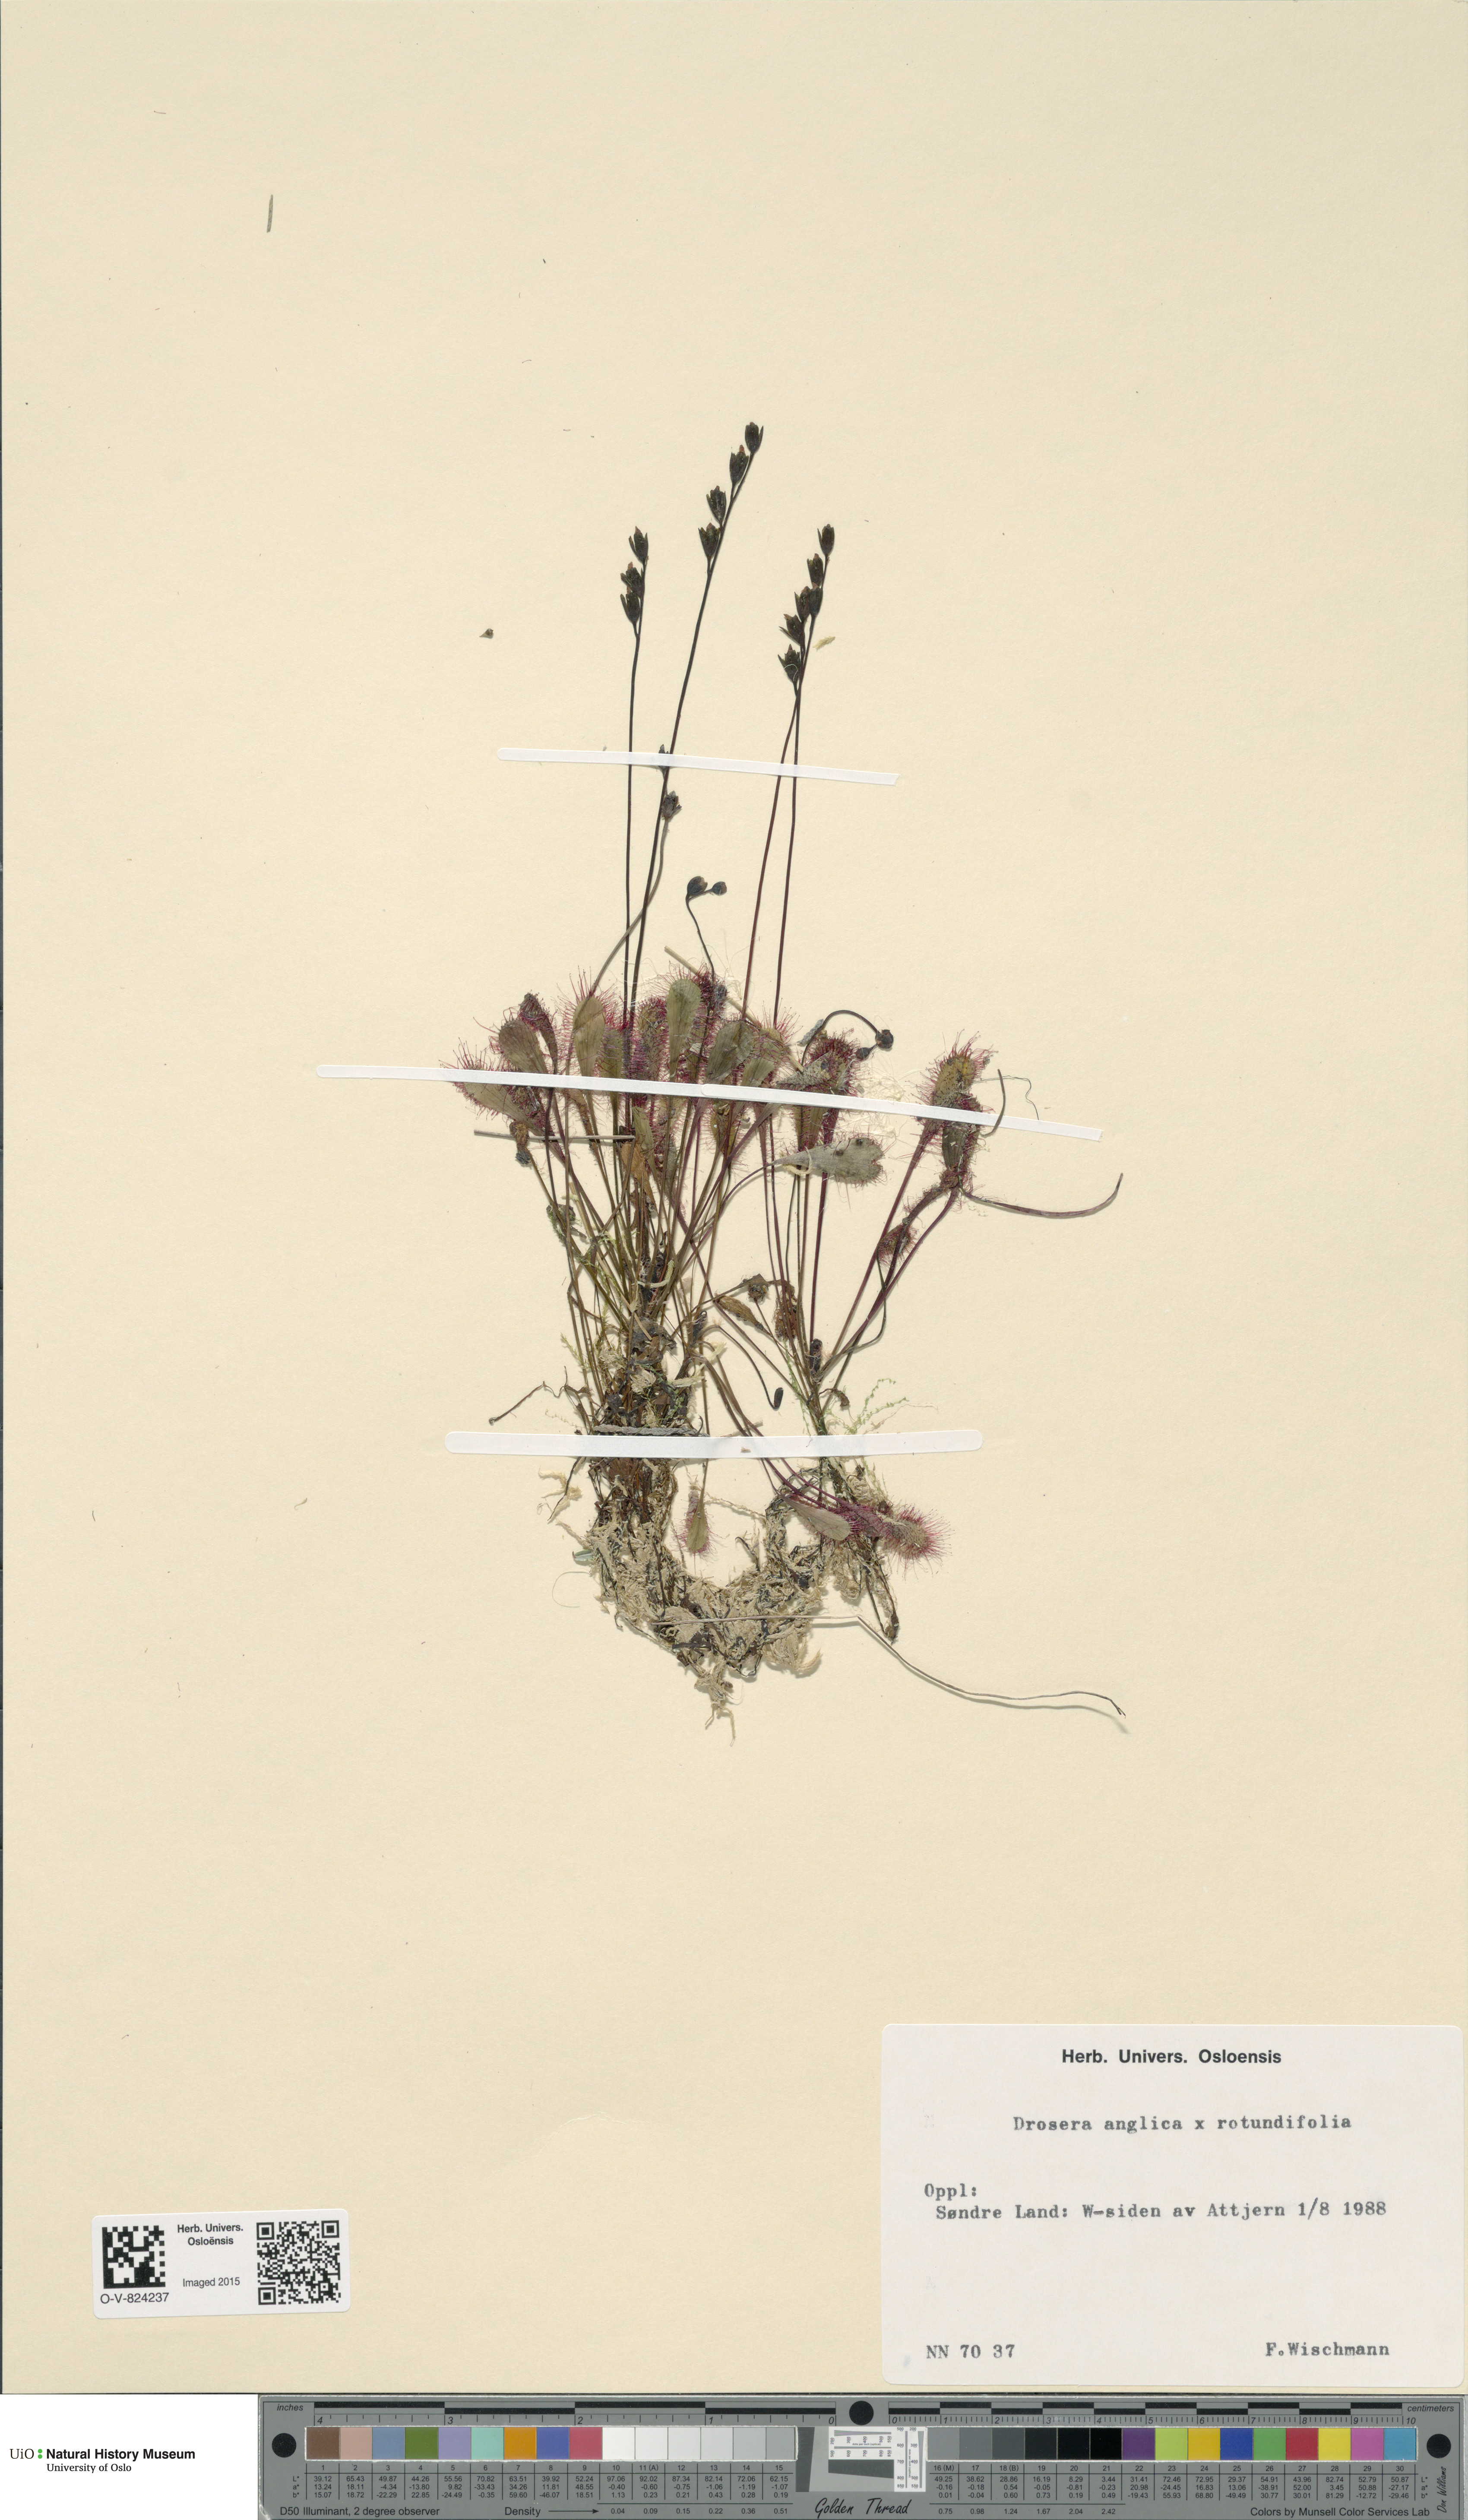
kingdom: Plantae
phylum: Tracheophyta
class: Magnoliopsida
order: Caryophyllales
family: Droseraceae
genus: Drosera
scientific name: Drosera
